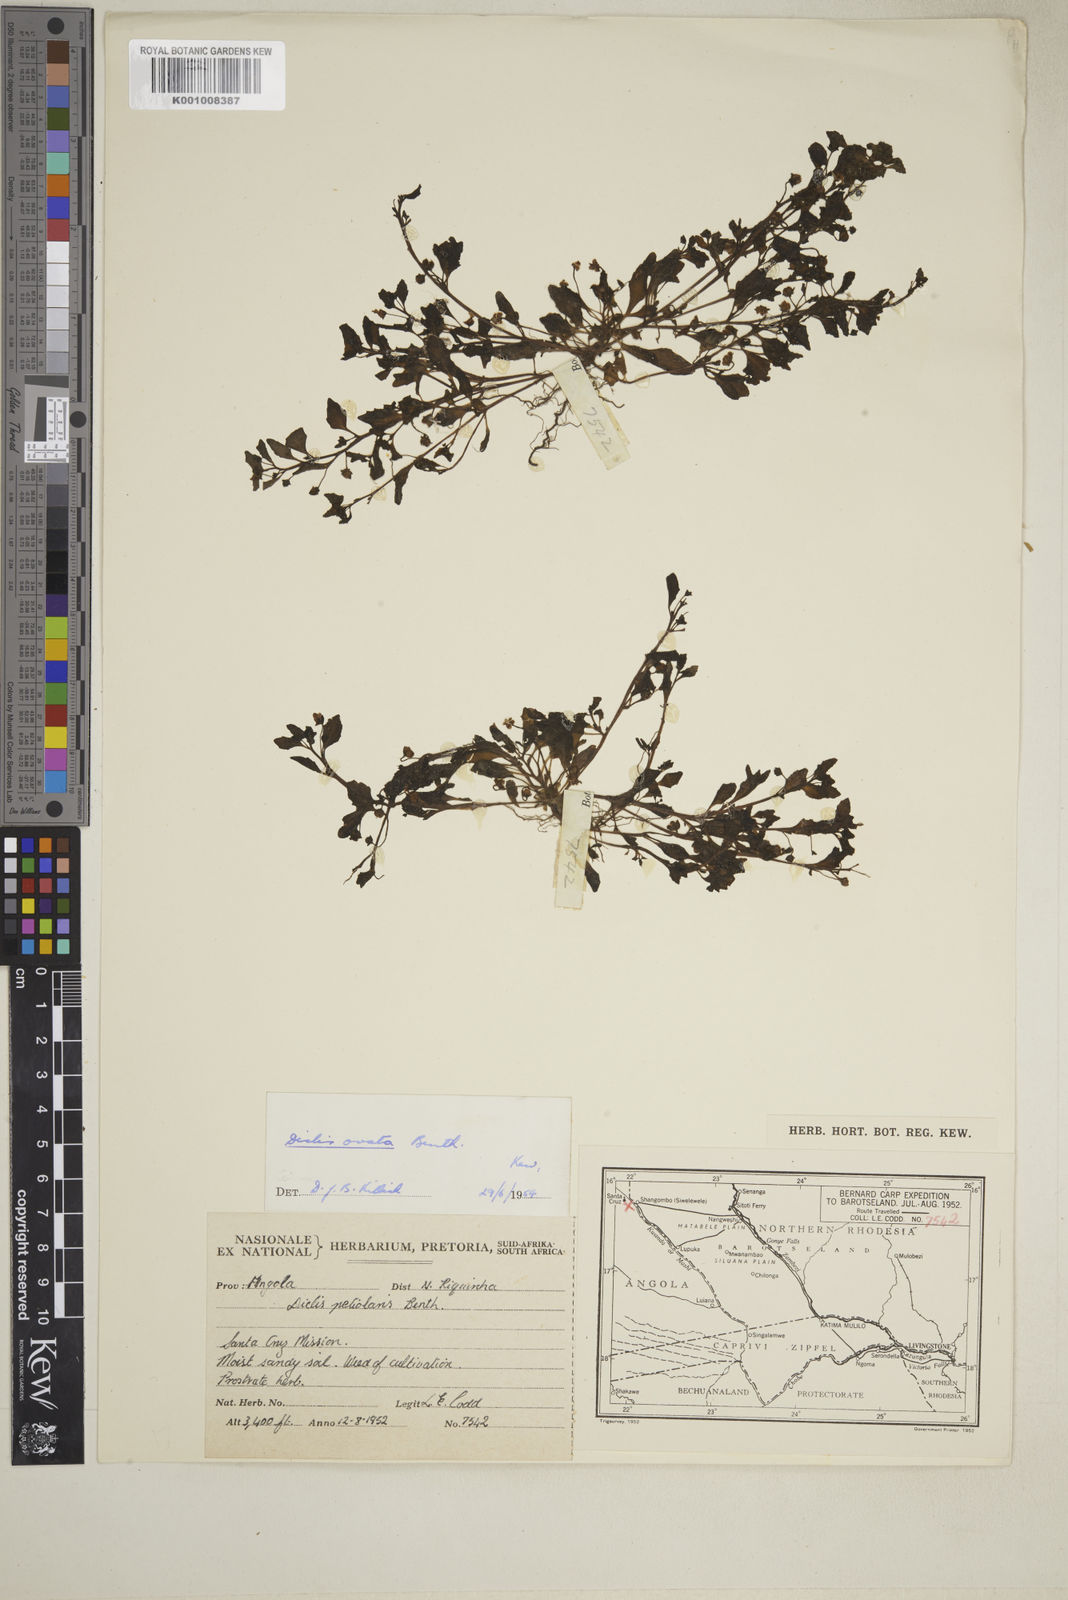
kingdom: Plantae
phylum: Tracheophyta
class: Magnoliopsida
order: Lamiales
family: Scrophulariaceae
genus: Diclis
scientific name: Diclis ovata
